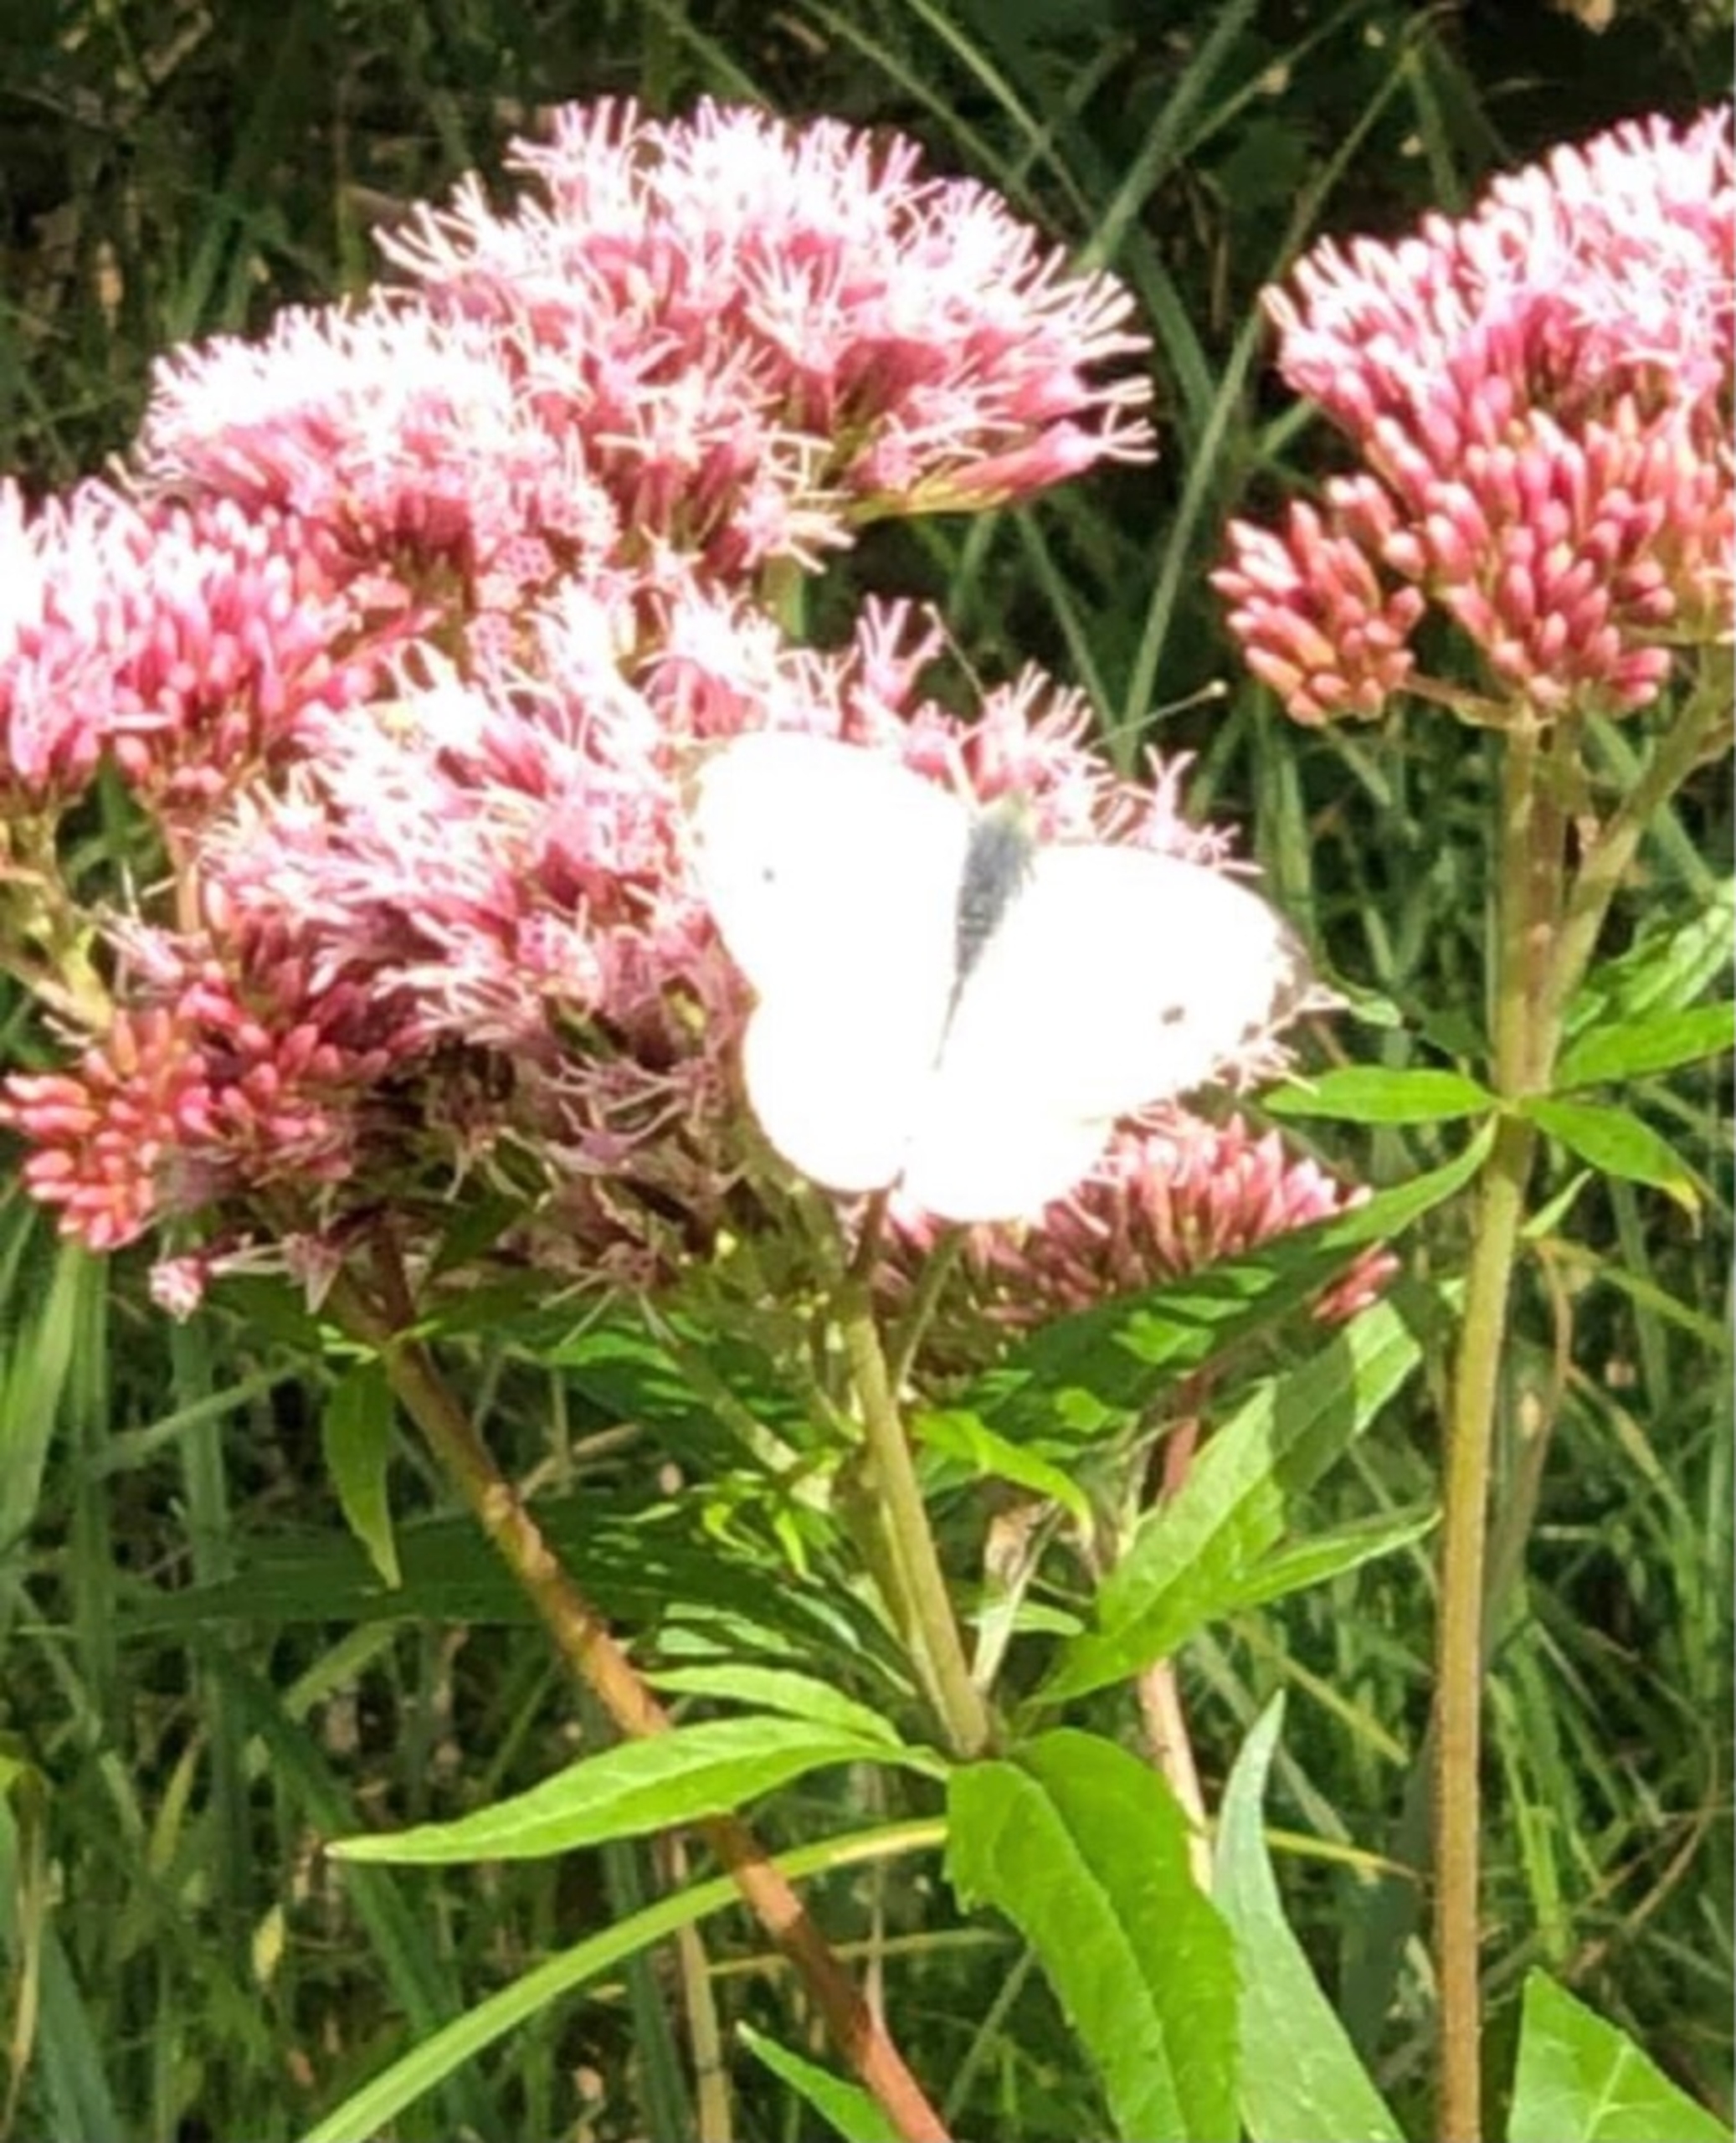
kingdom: Animalia
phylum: Arthropoda
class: Insecta
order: Lepidoptera
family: Pieridae
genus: Pieris
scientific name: Pieris napi
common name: Grønåret kålsommerfugl
